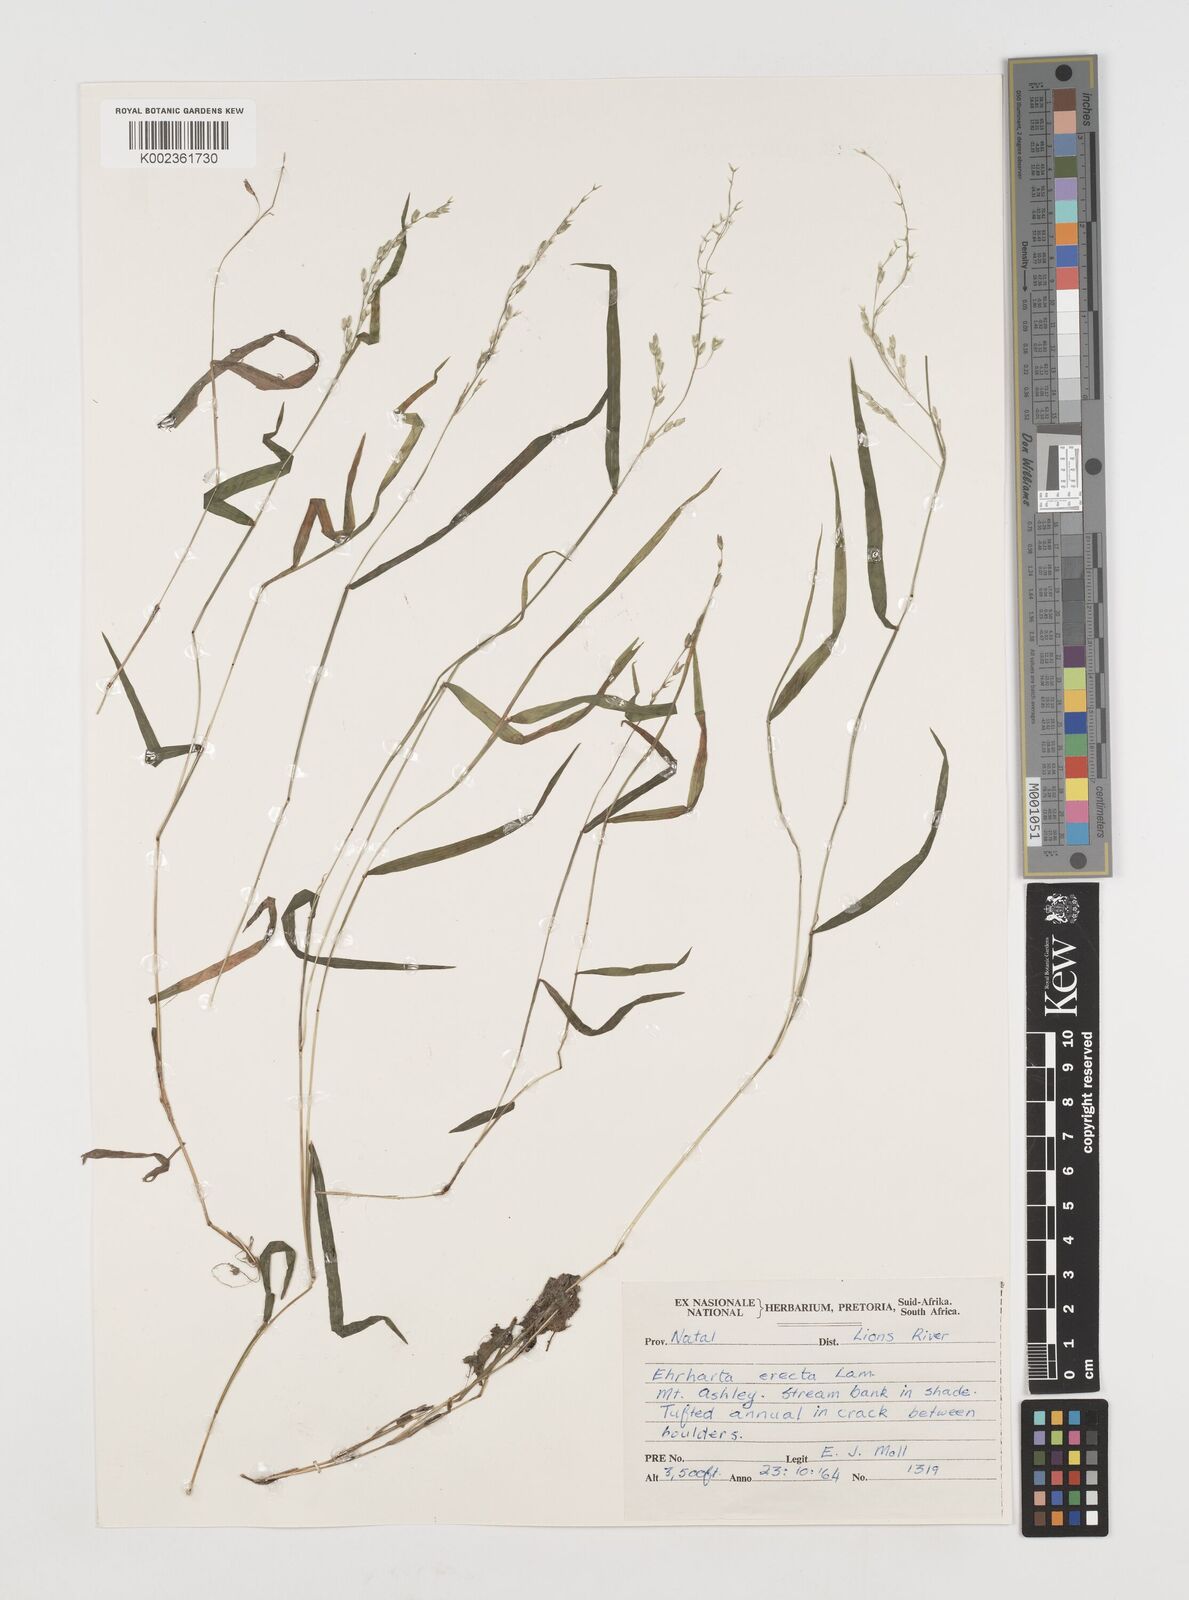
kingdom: Plantae
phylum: Tracheophyta
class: Liliopsida
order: Poales
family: Poaceae
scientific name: Poaceae
